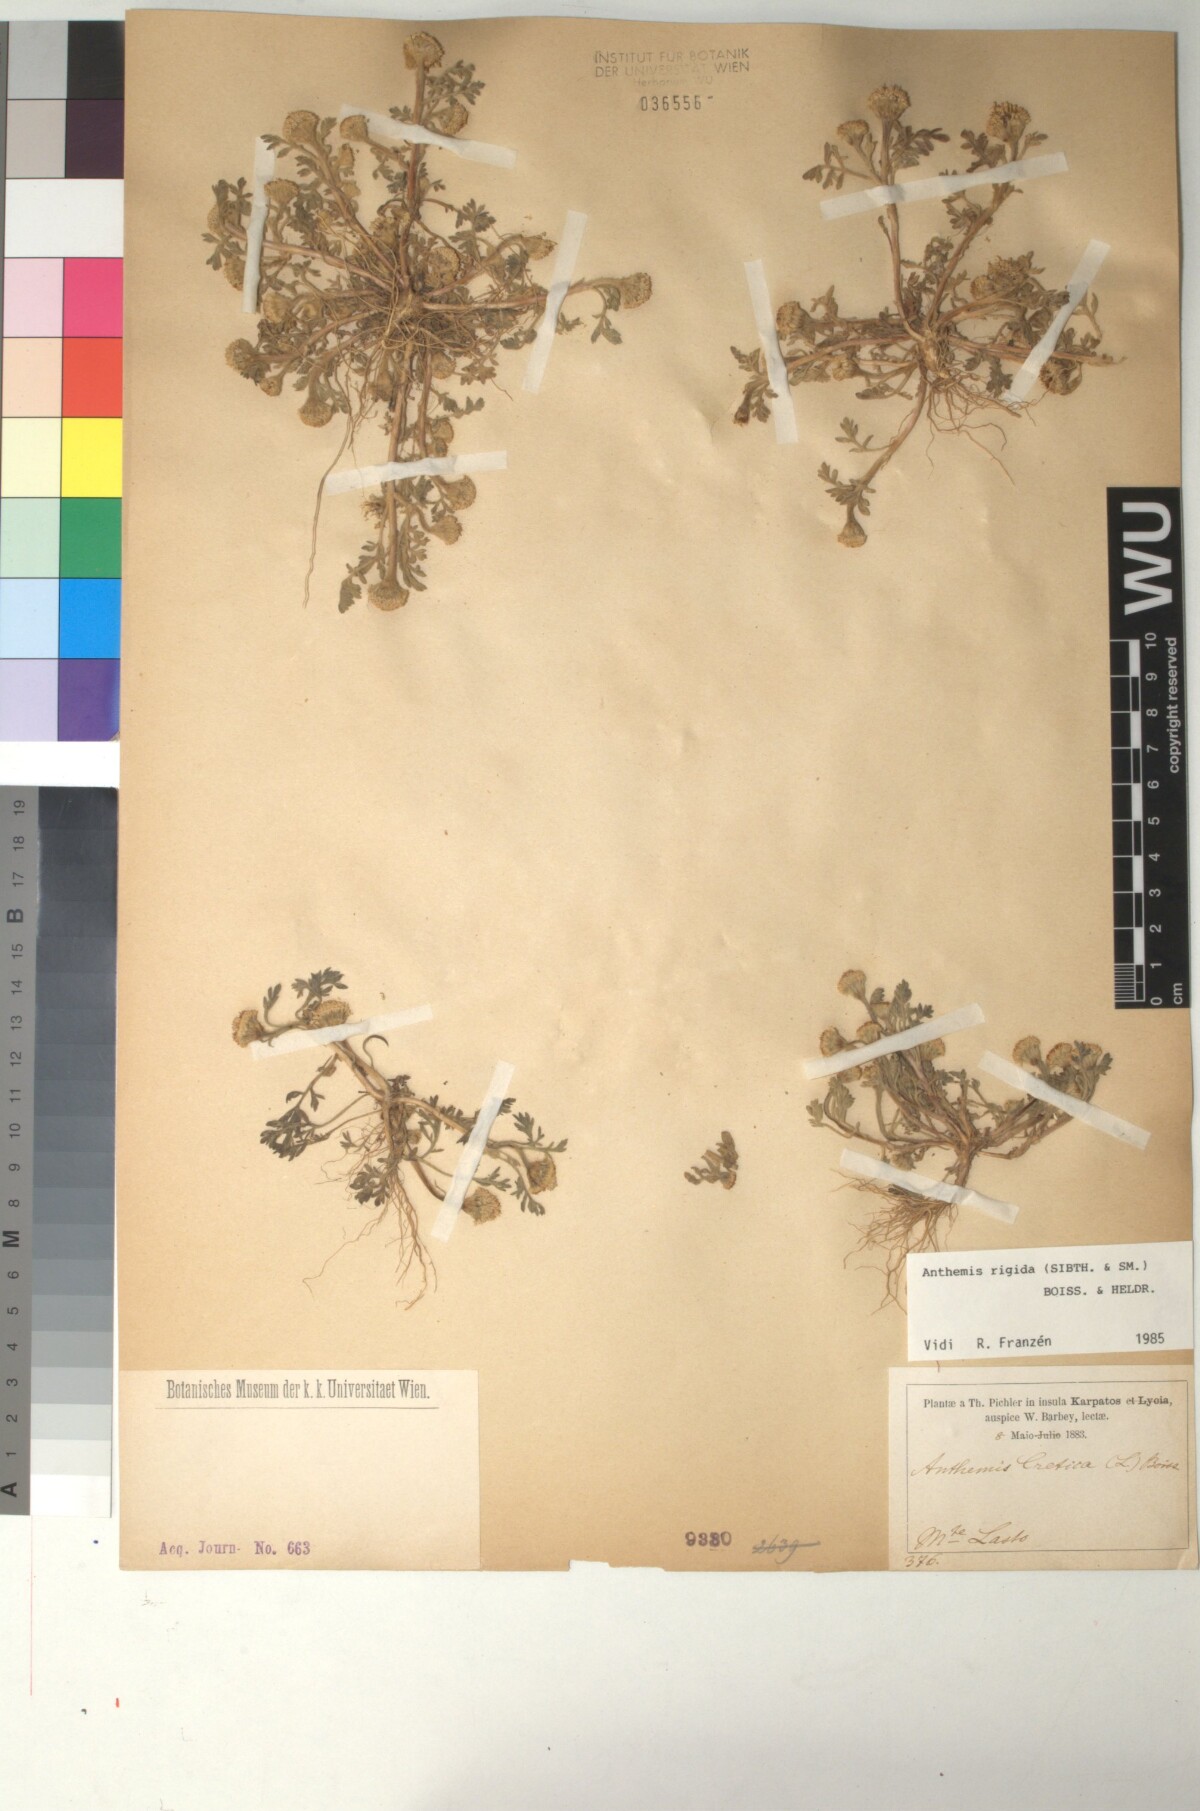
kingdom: Plantae
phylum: Tracheophyta
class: Magnoliopsida
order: Asterales
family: Asteraceae
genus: Anthemis
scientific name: Anthemis rigida
